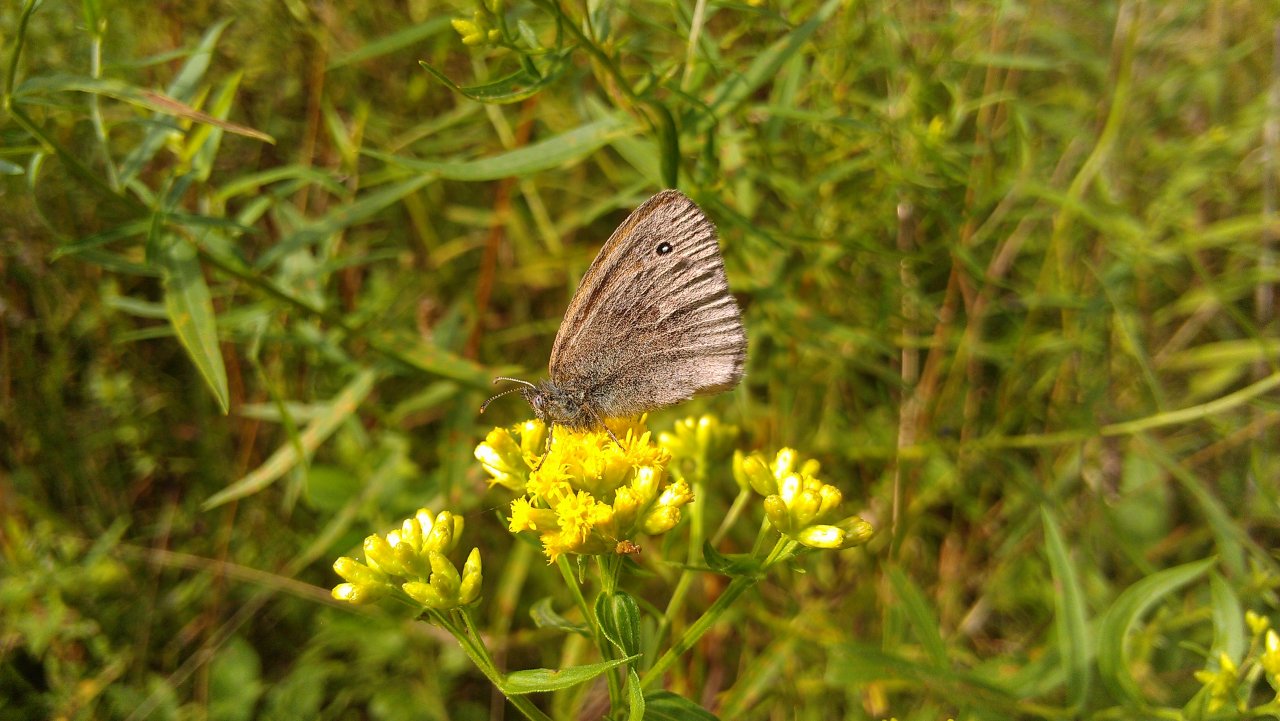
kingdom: Animalia
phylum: Arthropoda
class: Insecta
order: Lepidoptera
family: Nymphalidae
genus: Coenonympha
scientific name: Coenonympha tullia
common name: Large Heath
